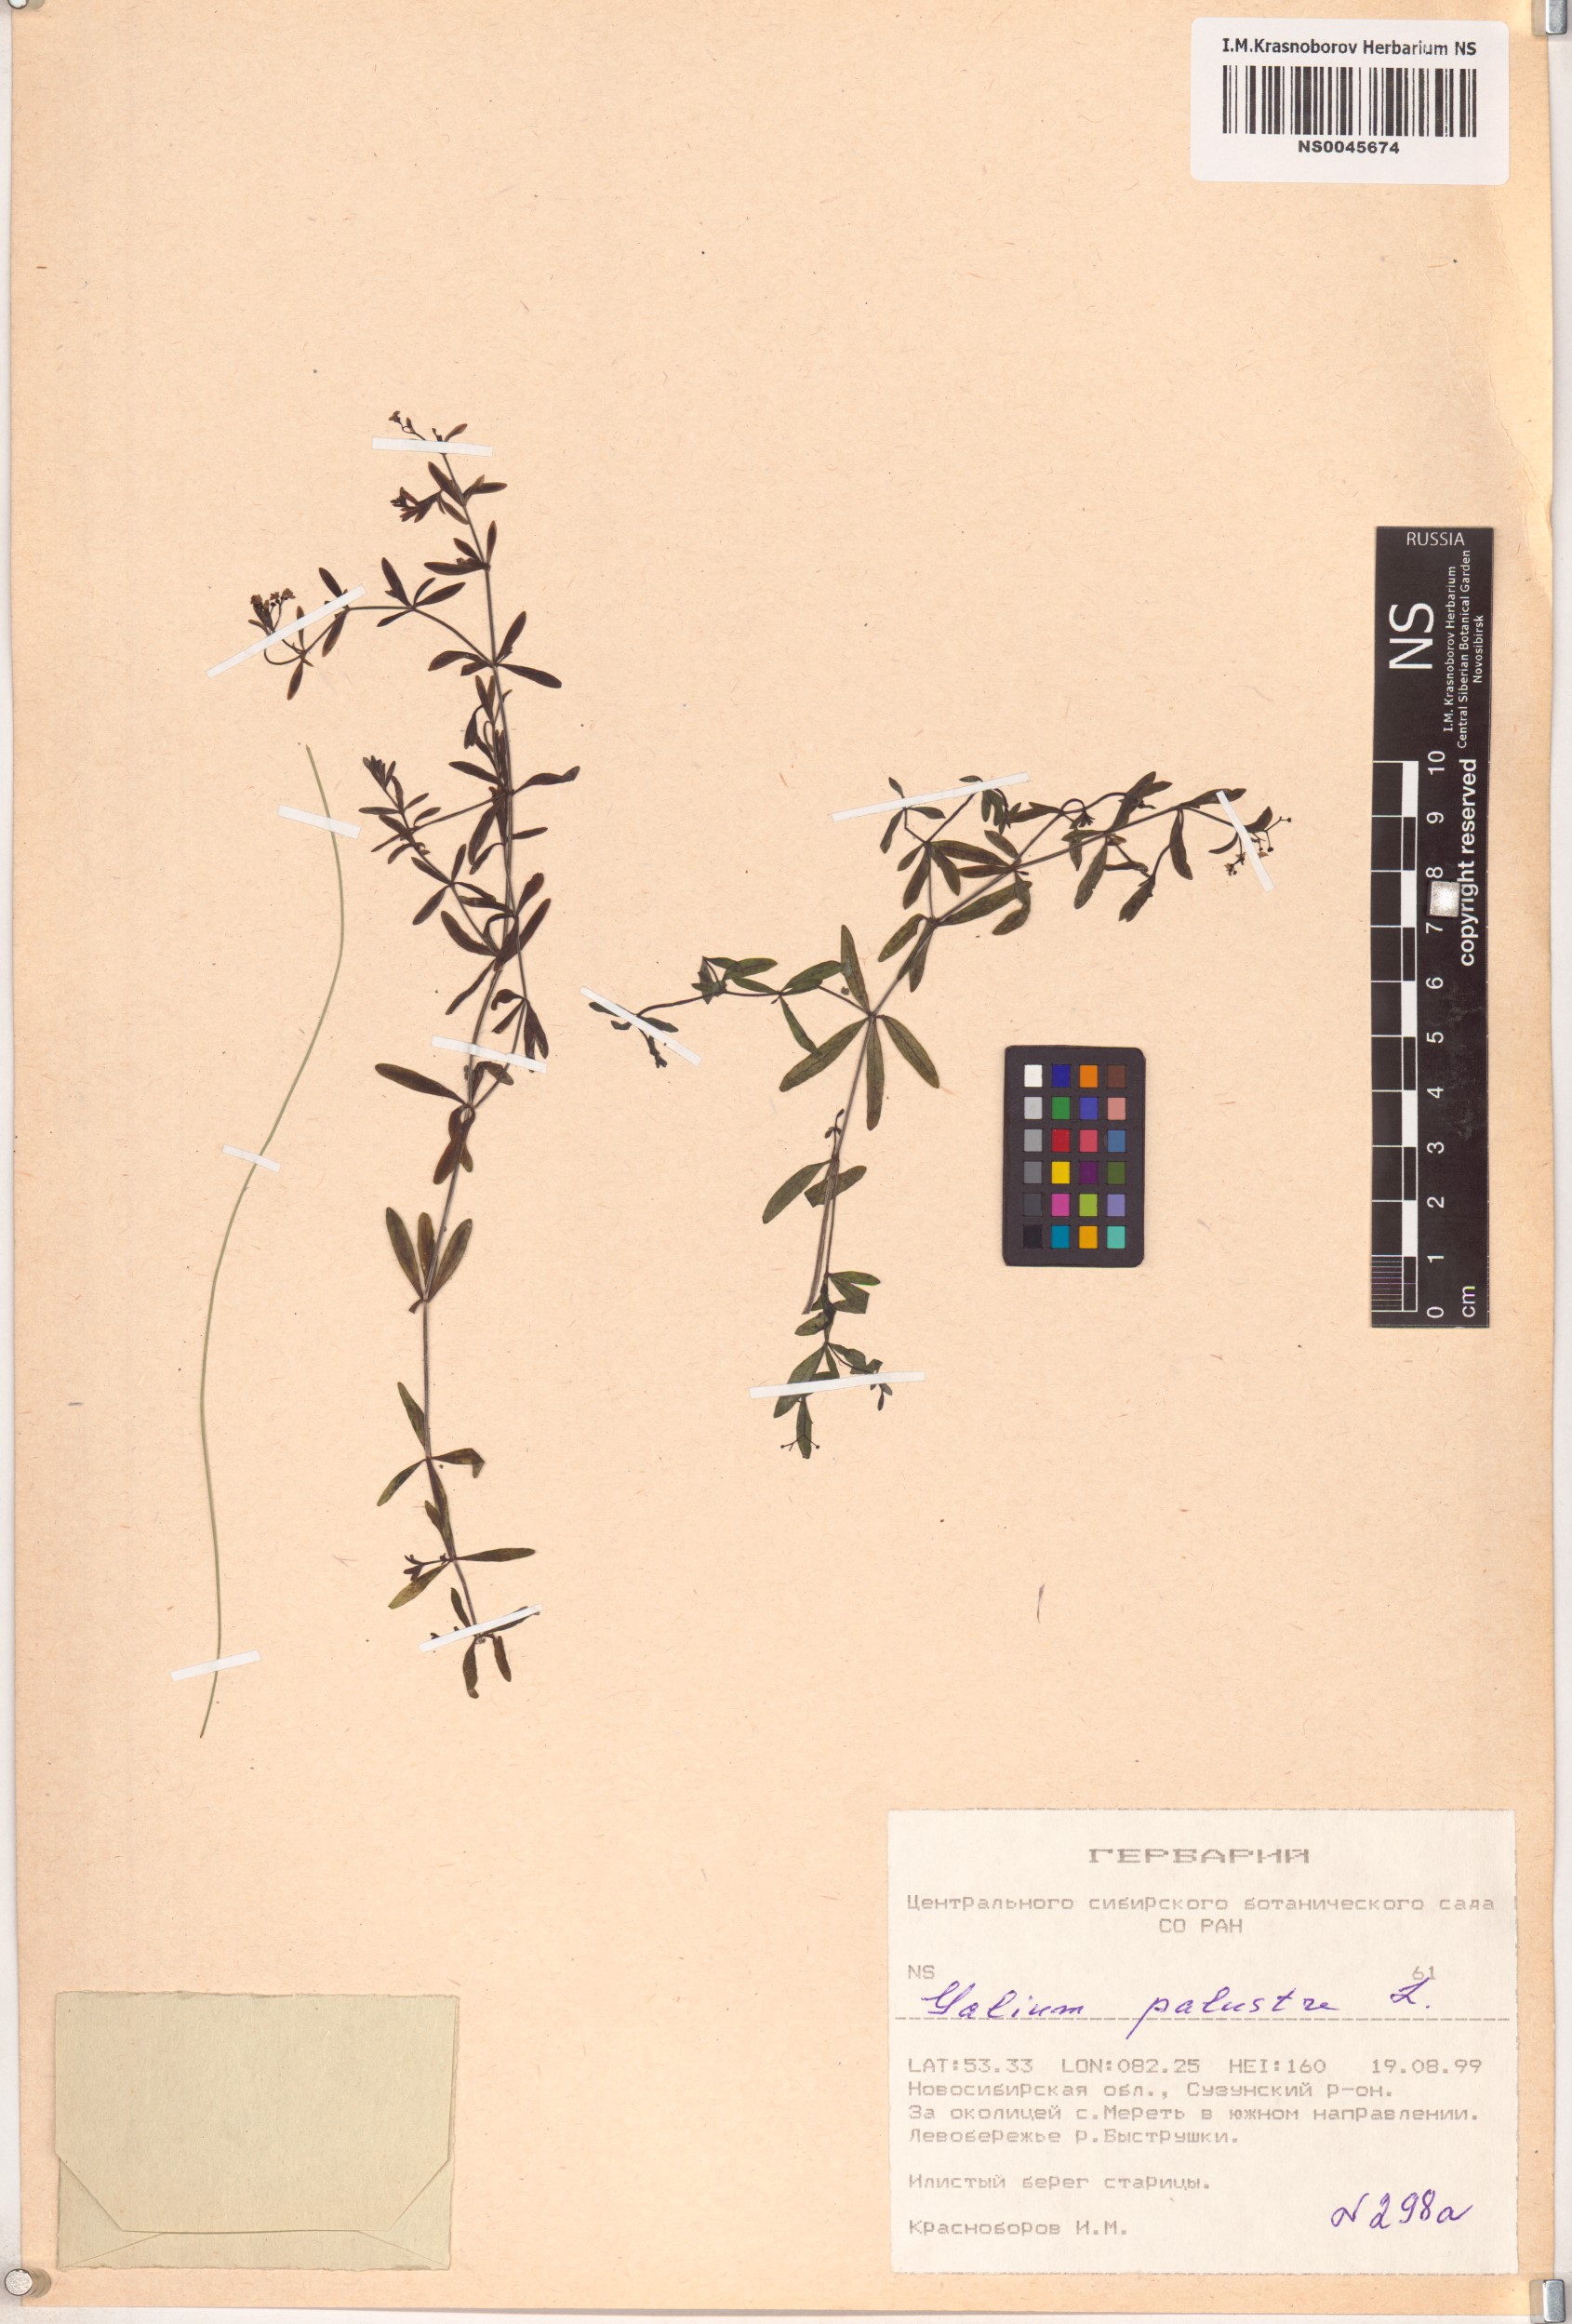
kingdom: Plantae
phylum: Tracheophyta
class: Magnoliopsida
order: Gentianales
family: Rubiaceae
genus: Galium
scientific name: Galium palustre
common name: Common marsh-bedstraw
